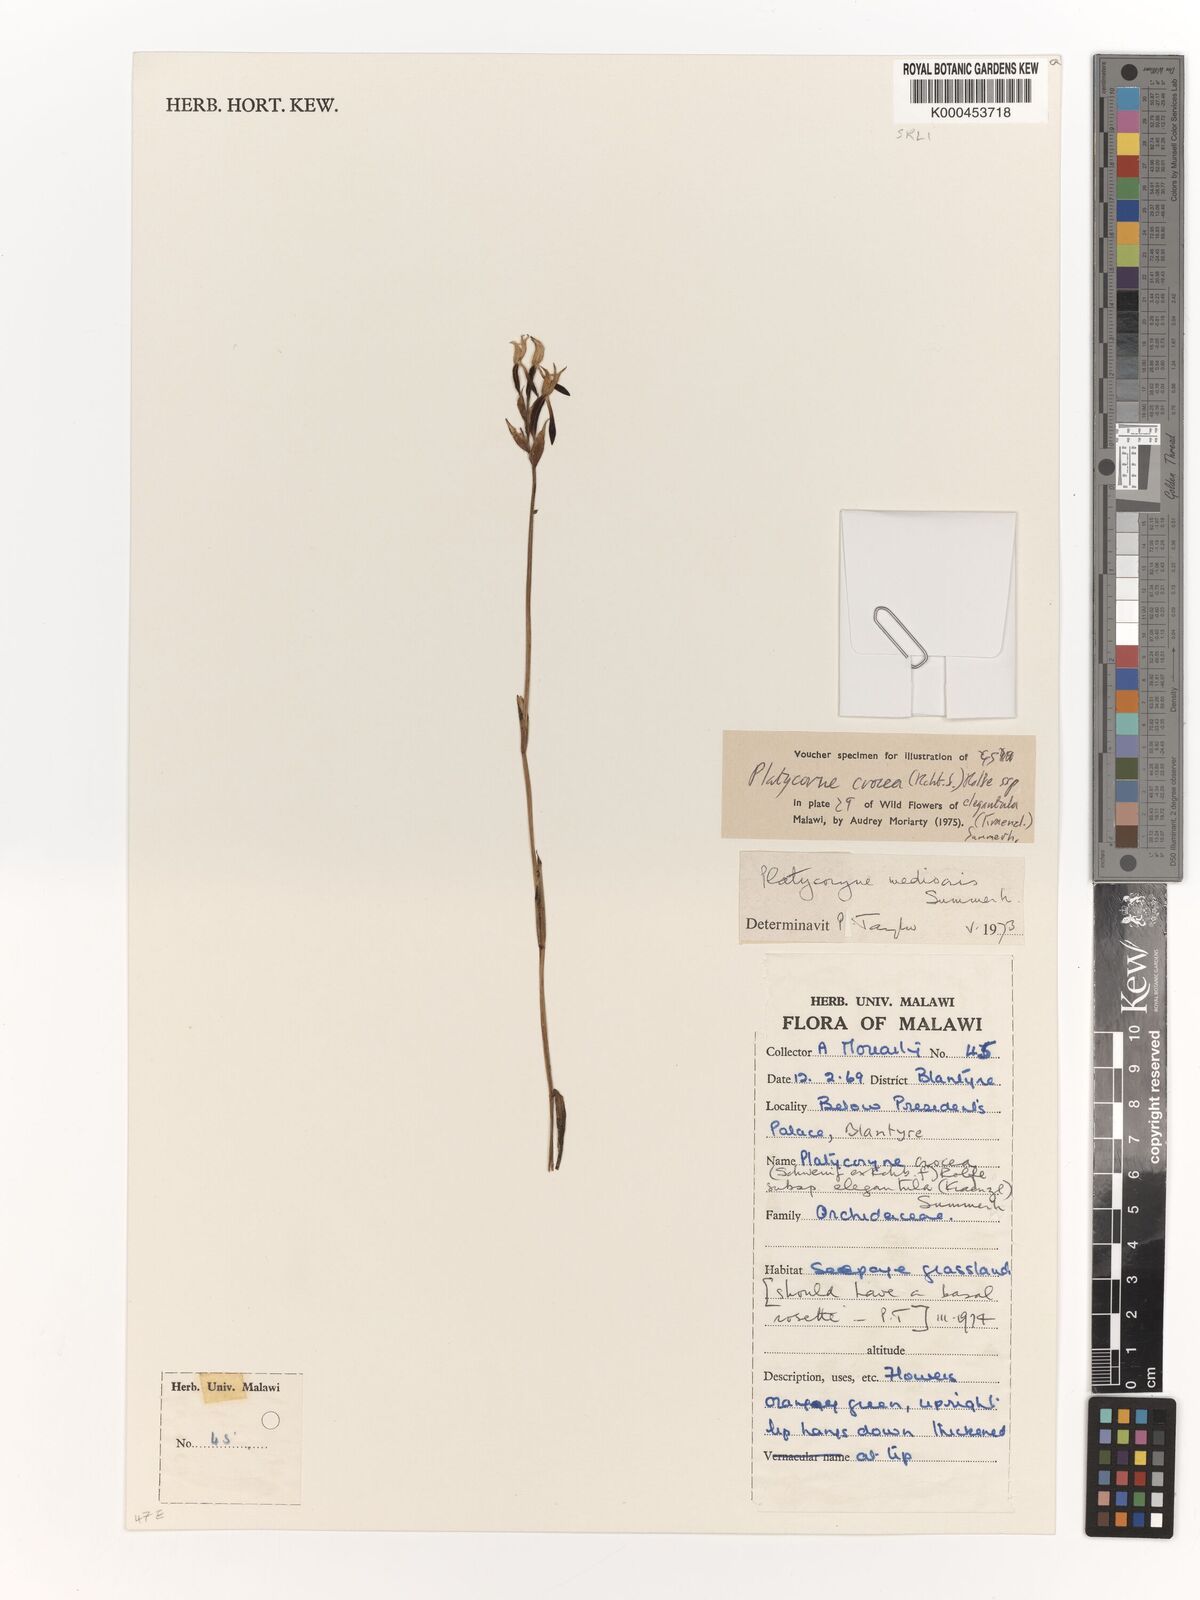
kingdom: Plantae
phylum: Tracheophyta
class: Liliopsida
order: Asparagales
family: Orchidaceae
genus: Platycoryne
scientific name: Platycoryne mediocris
